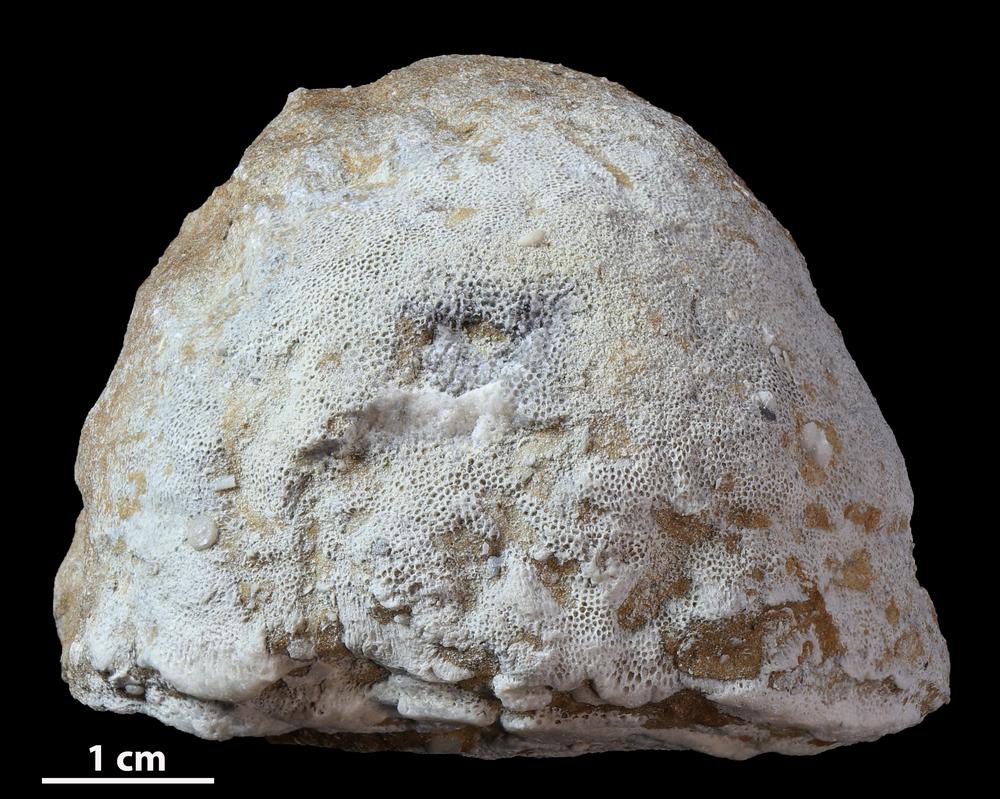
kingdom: Animalia
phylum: Bryozoa
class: Stenolaemata
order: Trepostomatida
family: Diplotrypidae
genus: Diplotrypa
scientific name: Diplotrypa petropolitana
